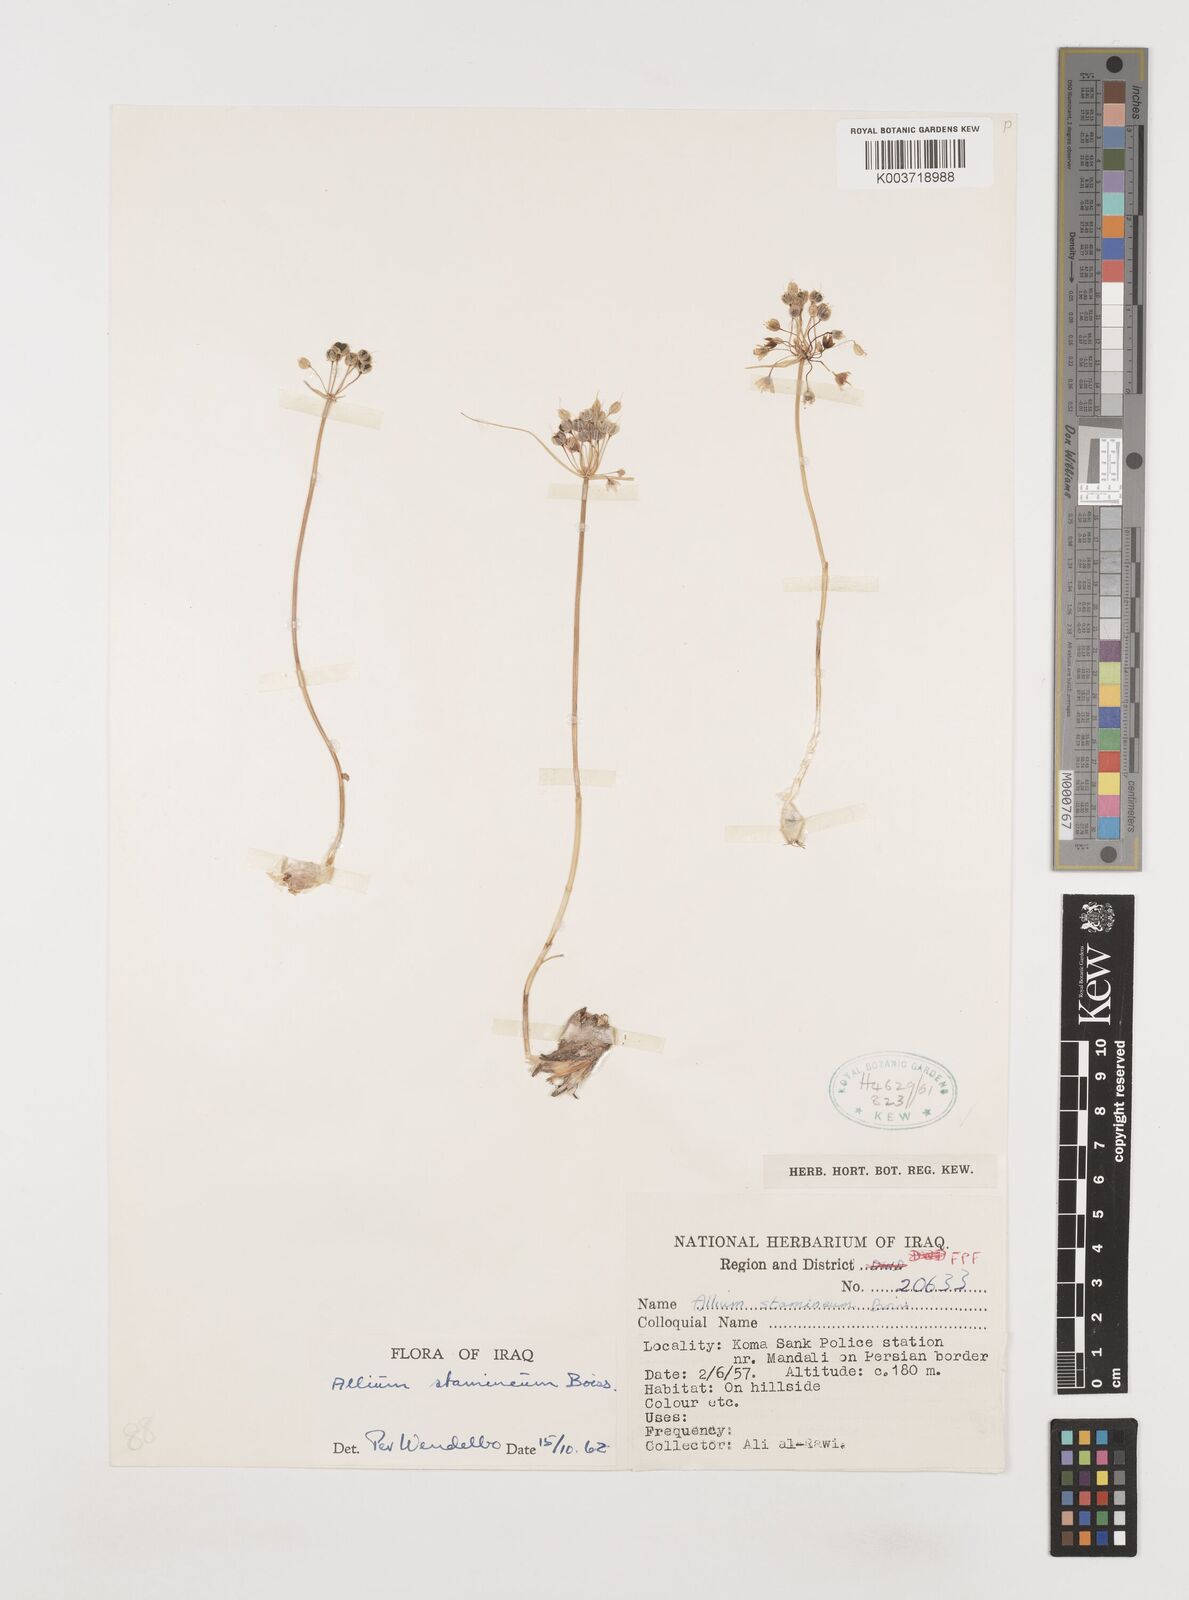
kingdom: Plantae
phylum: Tracheophyta
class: Liliopsida
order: Asparagales
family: Amaryllidaceae
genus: Allium
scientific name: Allium stamineum
